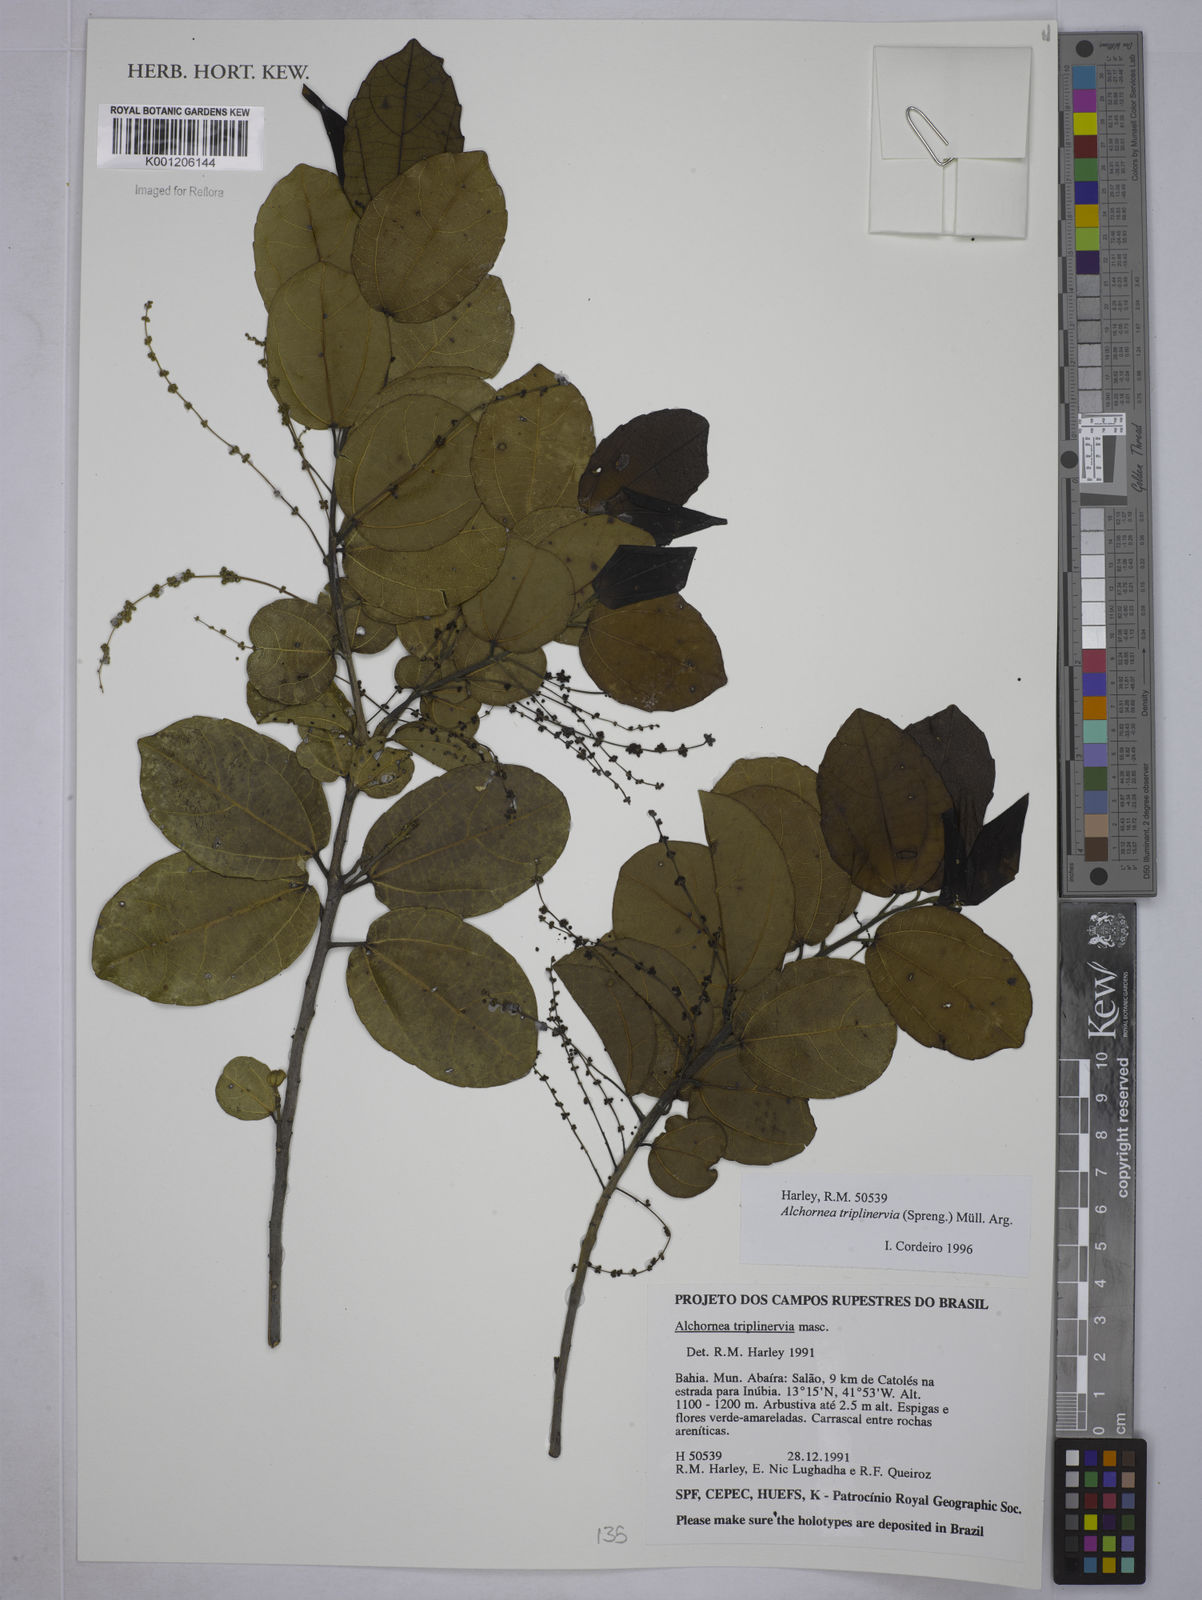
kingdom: Plantae
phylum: Tracheophyta
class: Magnoliopsida
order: Malpighiales
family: Euphorbiaceae
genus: Alchornea
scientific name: Alchornea
